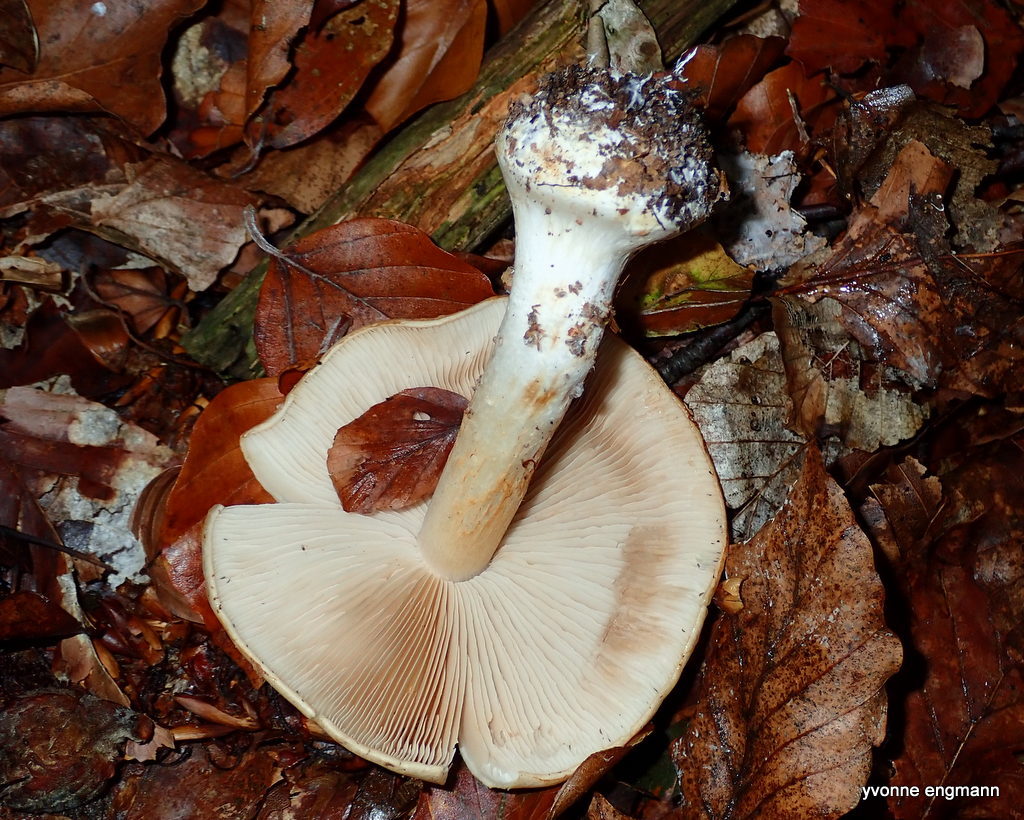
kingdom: Fungi
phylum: Basidiomycota
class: Agaricomycetes
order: Agaricales
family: Cortinariaceae
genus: Thaxterogaster
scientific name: Thaxterogaster talus
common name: knogle-slørhat
